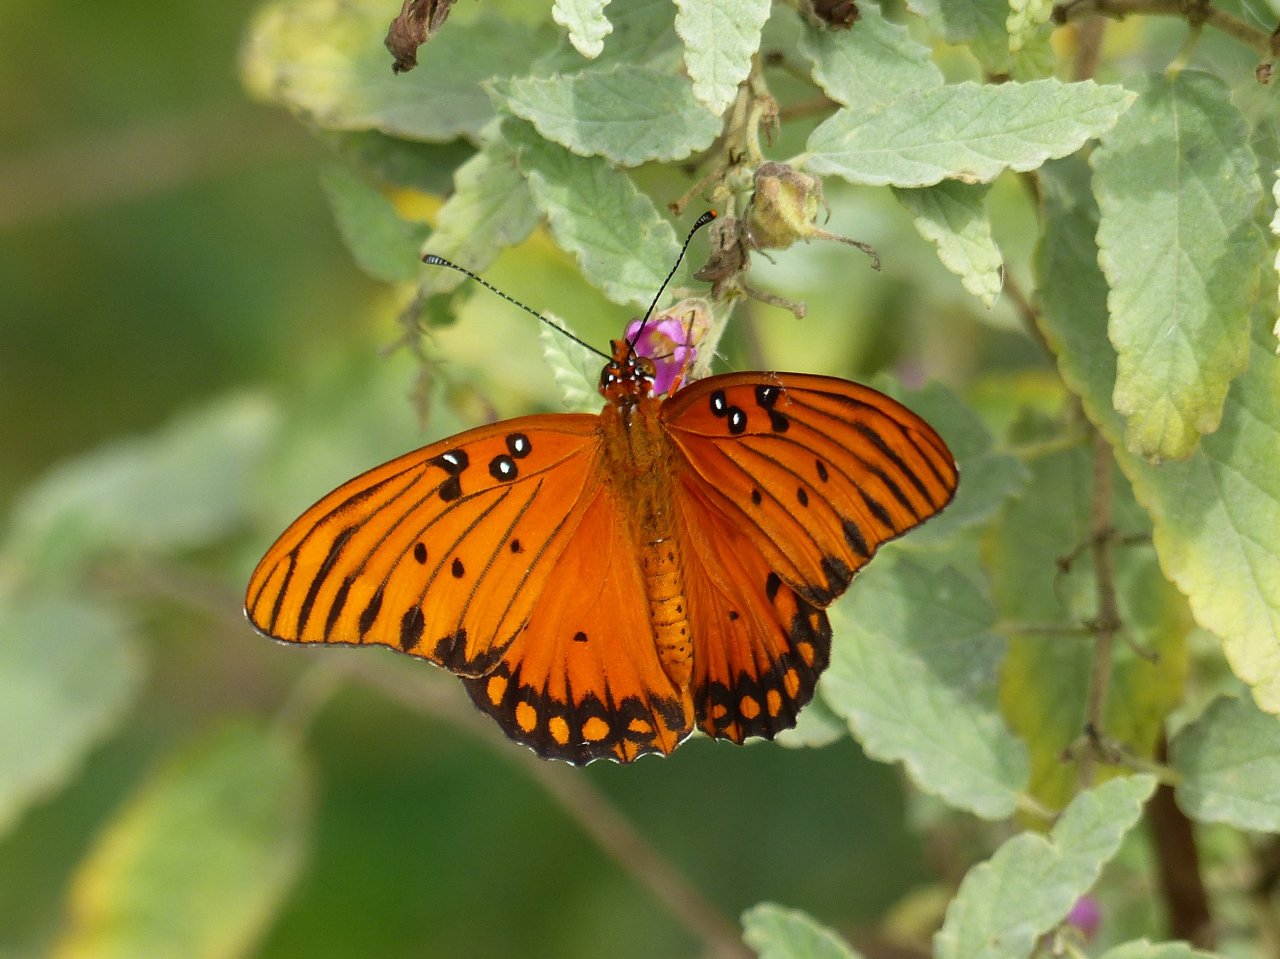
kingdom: Animalia
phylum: Arthropoda
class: Insecta
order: Lepidoptera
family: Nymphalidae
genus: Dione
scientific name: Dione vanillae
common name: Gulf Fritillary
